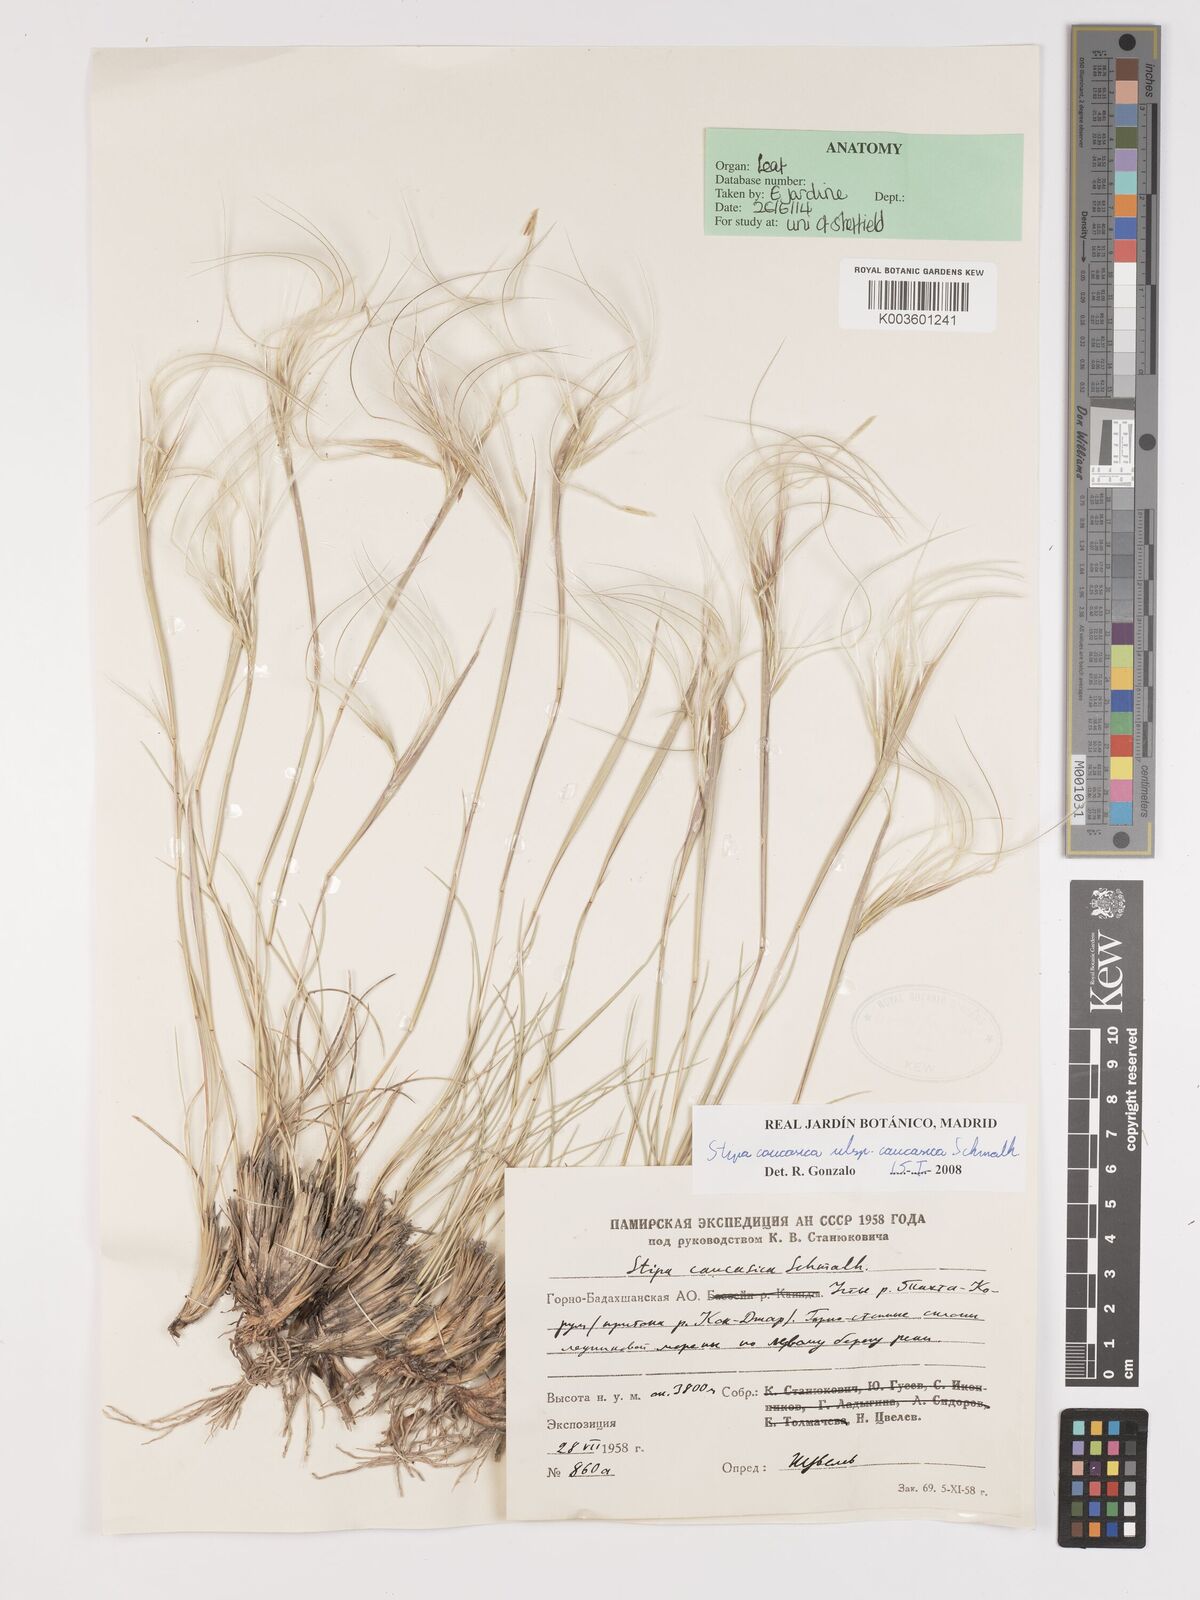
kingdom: Plantae
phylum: Tracheophyta
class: Liliopsida
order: Poales
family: Poaceae
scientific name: Poaceae
